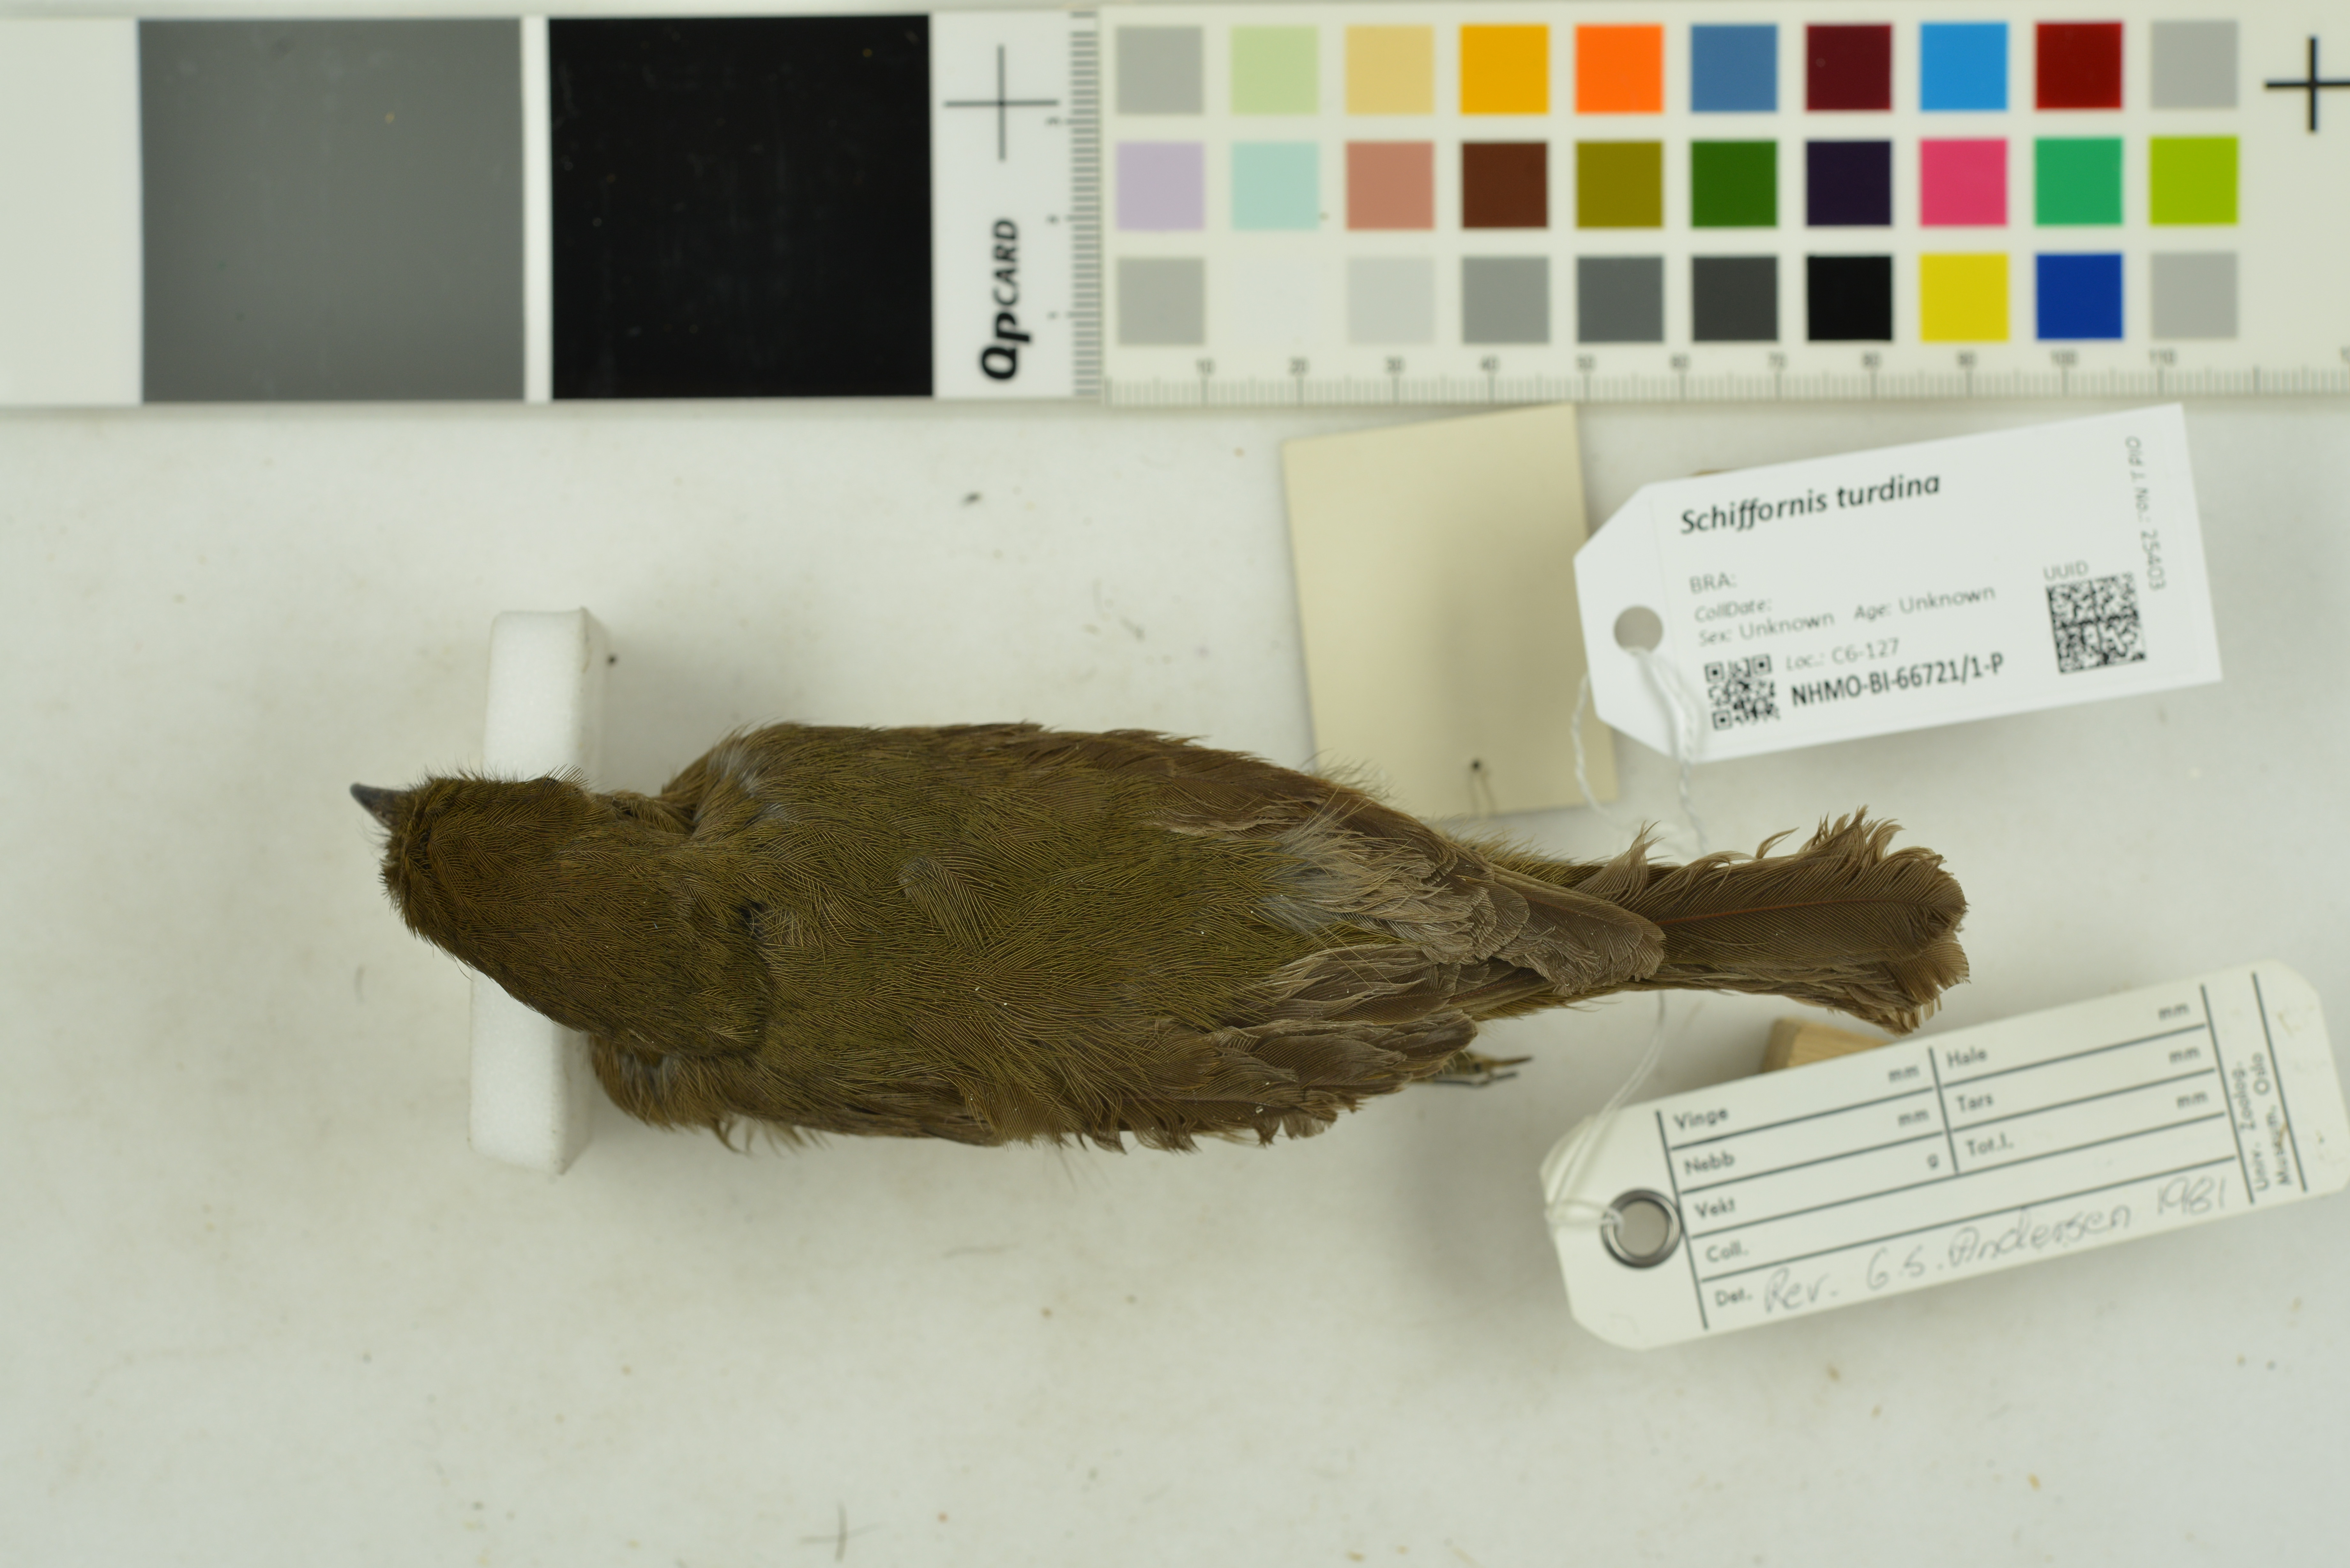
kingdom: Animalia
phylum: Chordata
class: Aves
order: Passeriformes
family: Cotingidae
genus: Schiffornis
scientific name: Schiffornis turdina
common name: Brown-winged schiffornis
